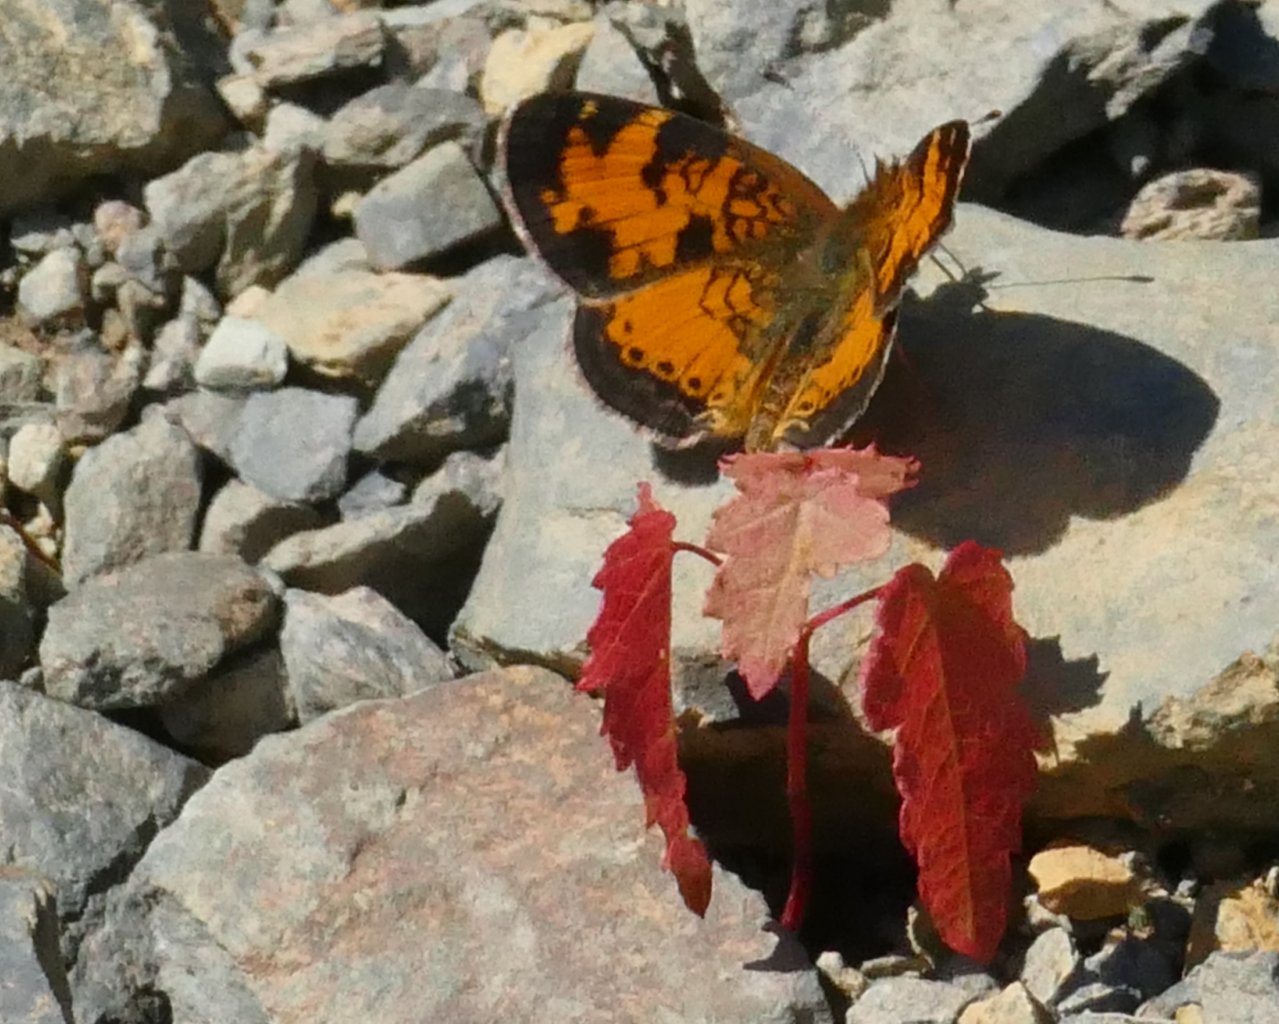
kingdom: Animalia
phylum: Arthropoda
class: Insecta
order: Lepidoptera
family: Nymphalidae
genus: Phyciodes
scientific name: Phyciodes tharos
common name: Northern Crescent
